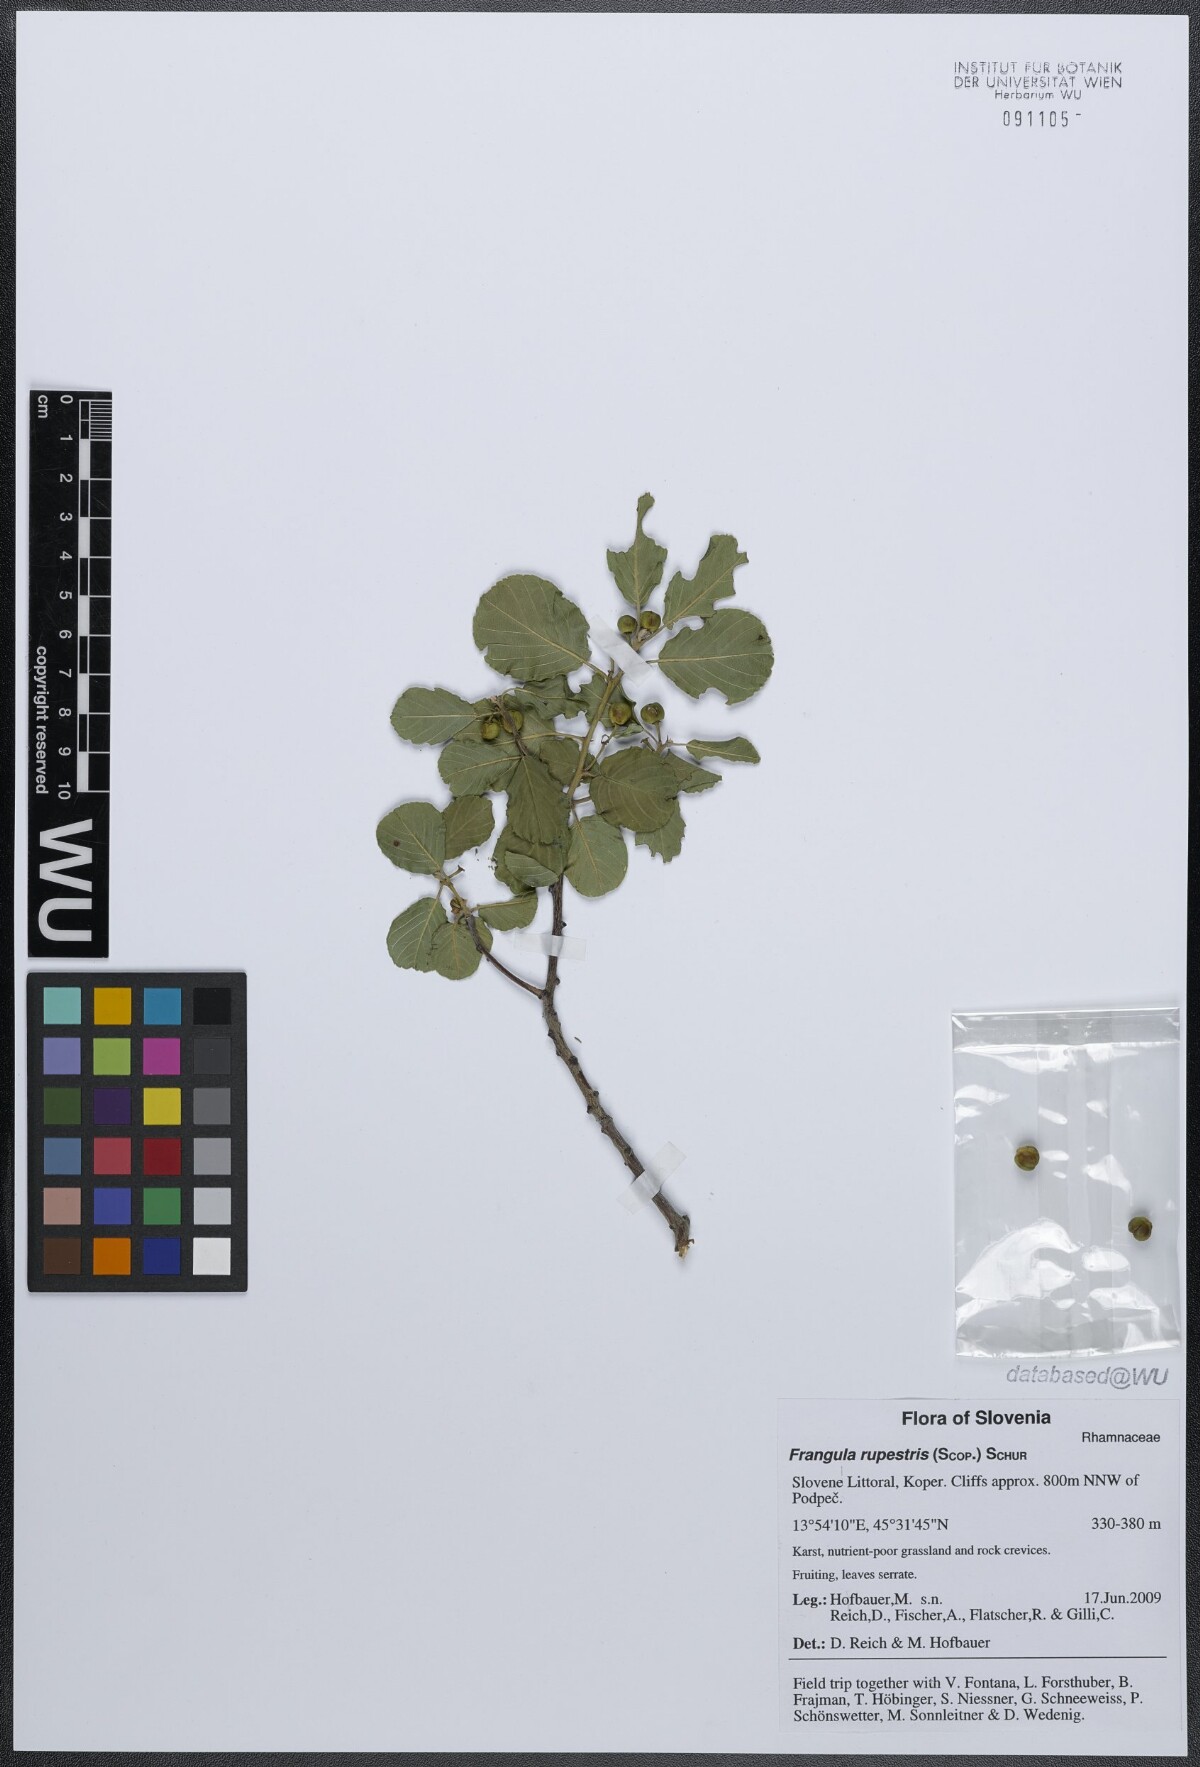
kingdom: Plantae
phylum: Tracheophyta
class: Magnoliopsida
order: Rosales
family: Rhamnaceae
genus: Frangula
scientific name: Frangula rupestris
